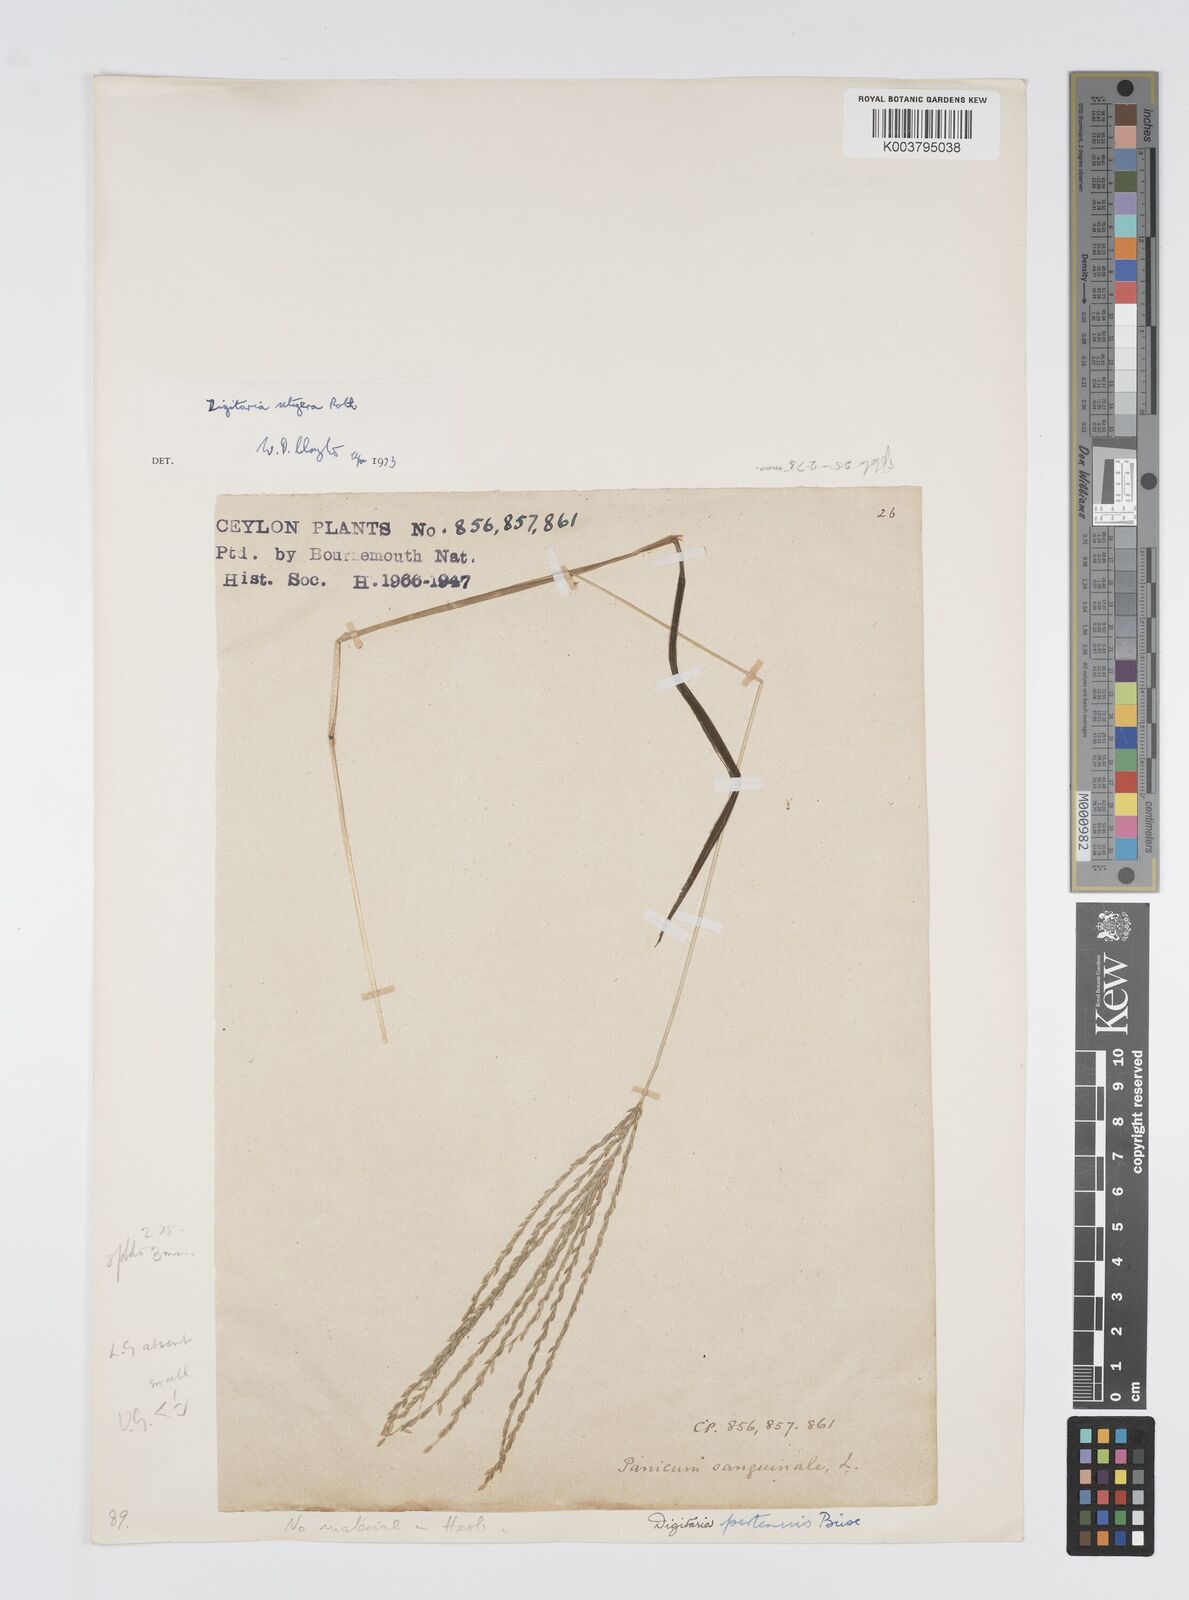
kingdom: Plantae
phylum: Tracheophyta
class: Liliopsida
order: Poales
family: Poaceae
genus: Digitaria
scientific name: Digitaria setigera
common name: East indian crabgrass
